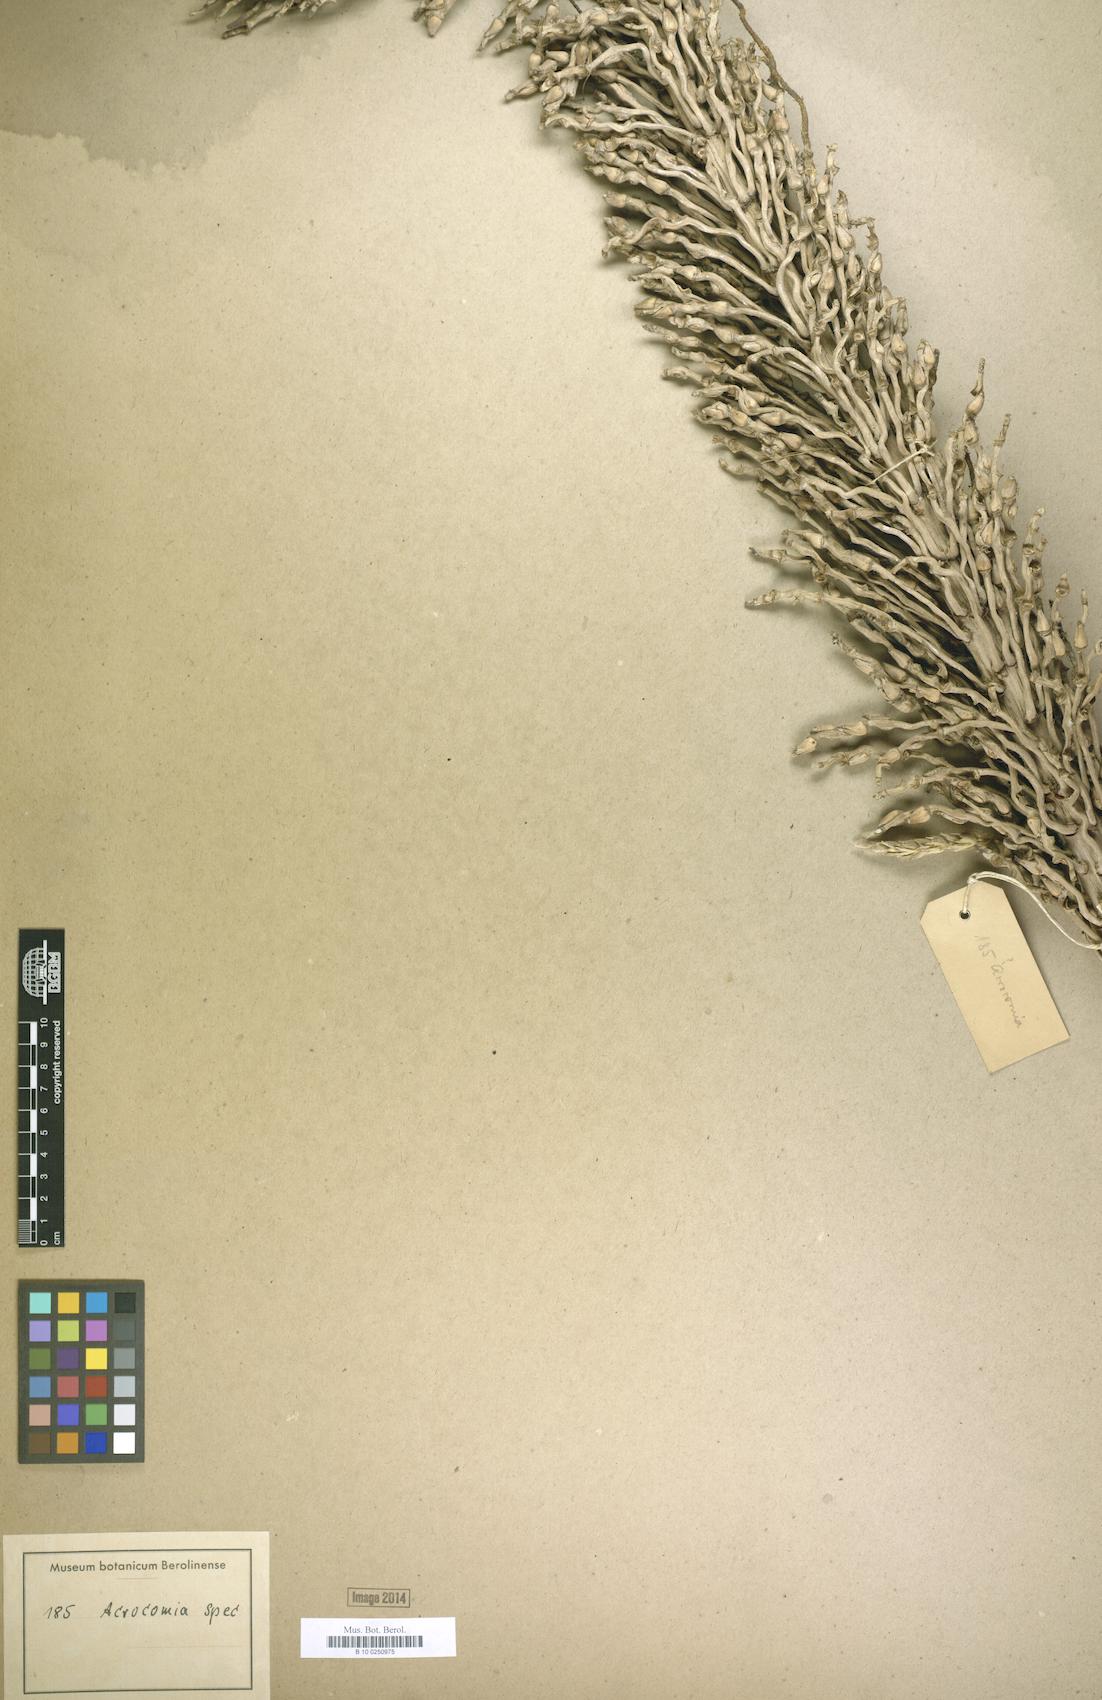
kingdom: Plantae
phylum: Tracheophyta
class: Liliopsida
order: Arecales
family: Arecaceae
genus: Acrocomia
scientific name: Acrocomia
